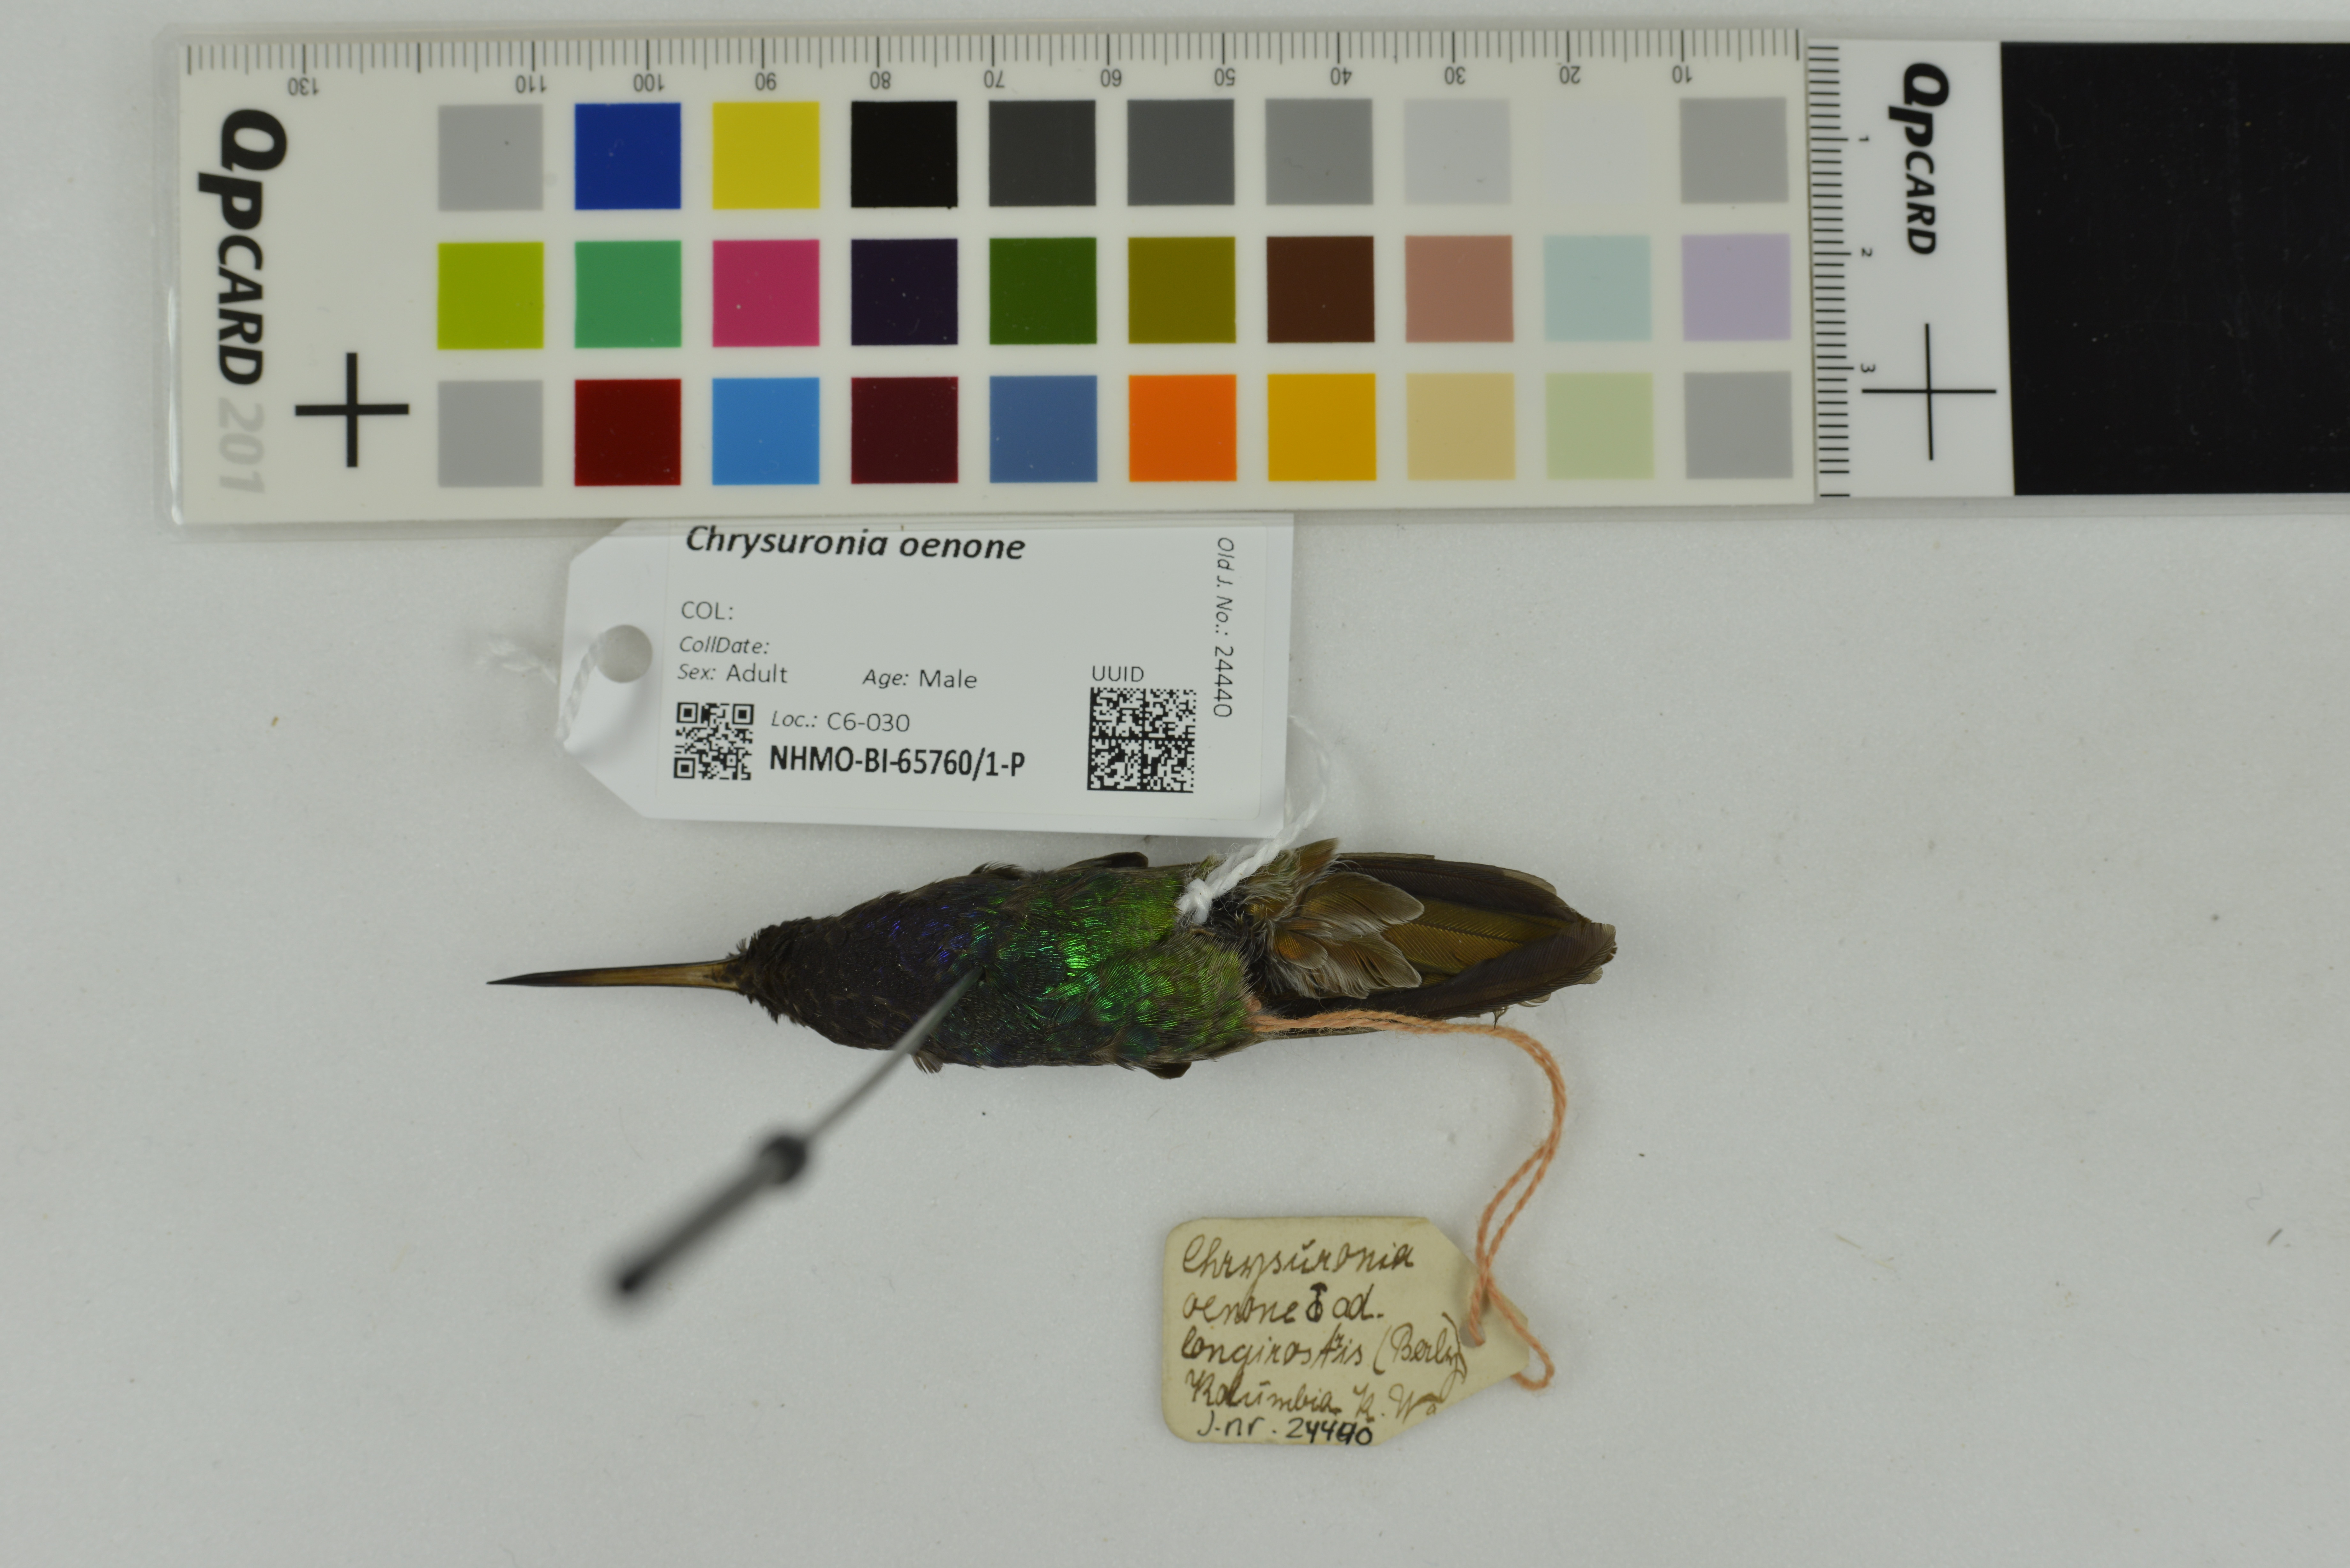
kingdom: Animalia
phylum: Chordata
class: Aves
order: Apodiformes
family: Trochilidae
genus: Chrysuronia
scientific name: Chrysuronia oenone
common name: Golden-tailed sapphire
